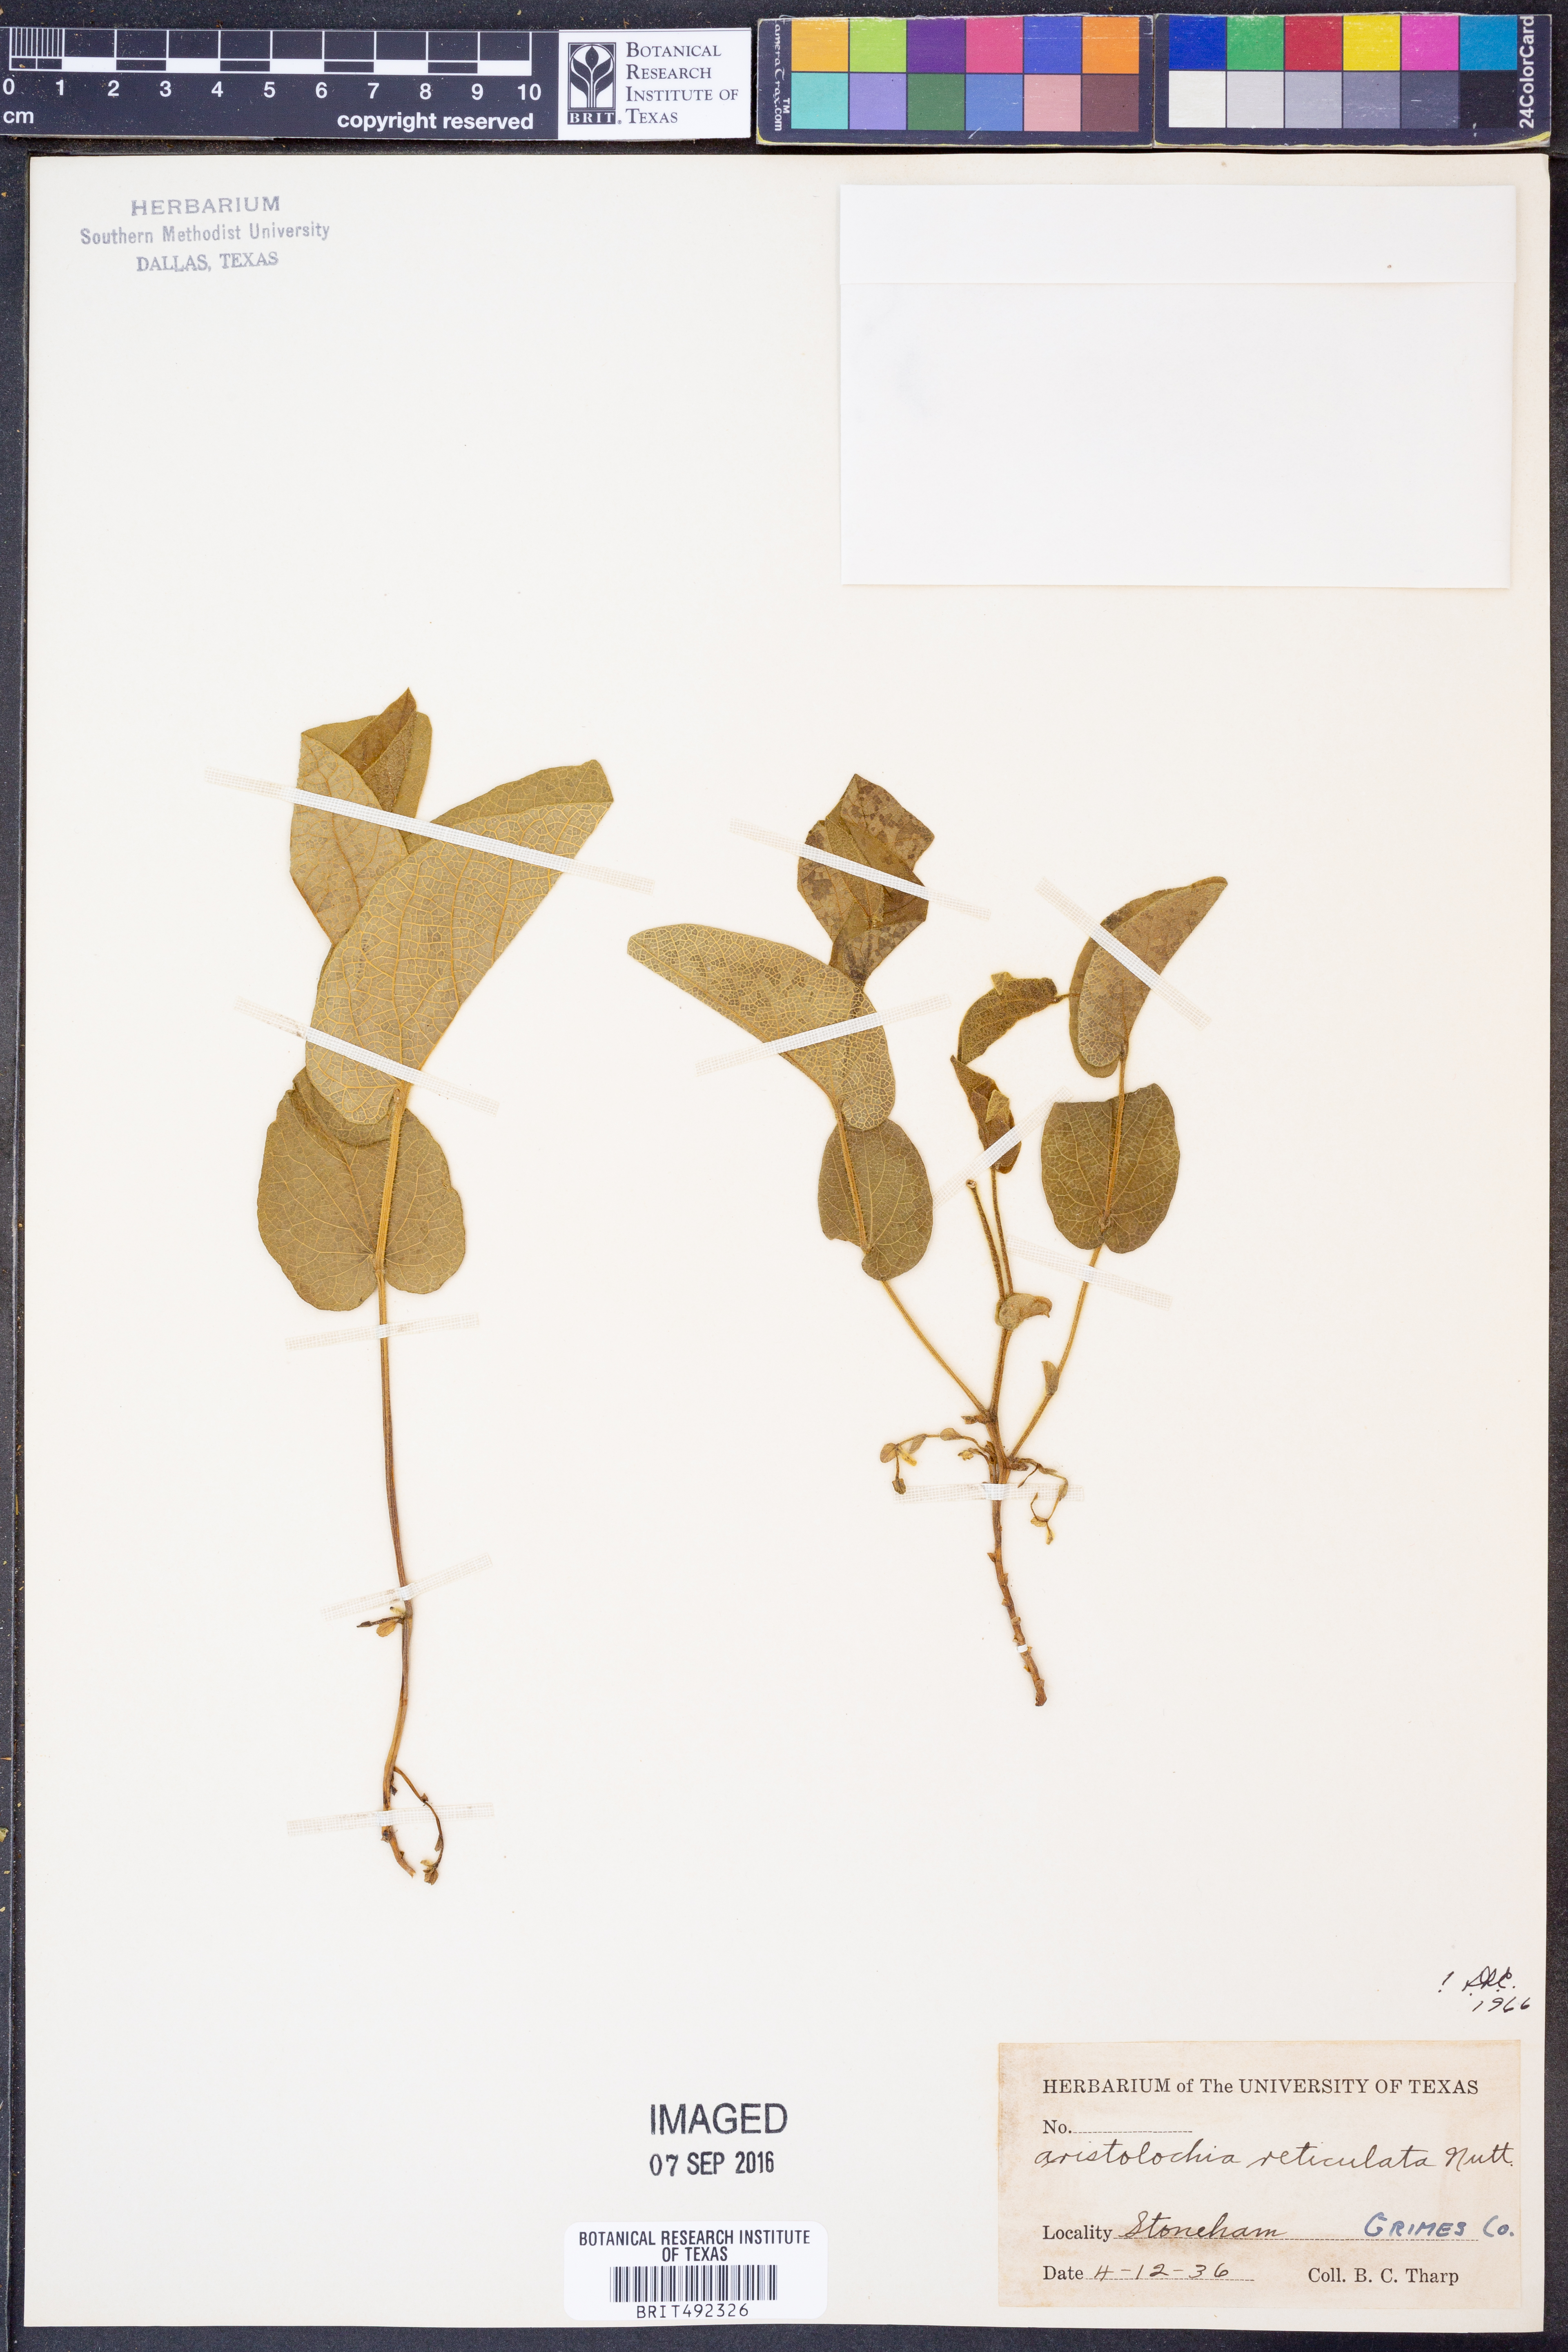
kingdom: Plantae
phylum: Tracheophyta
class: Magnoliopsida
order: Piperales
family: Aristolochiaceae
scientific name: Aristolochiaceae
